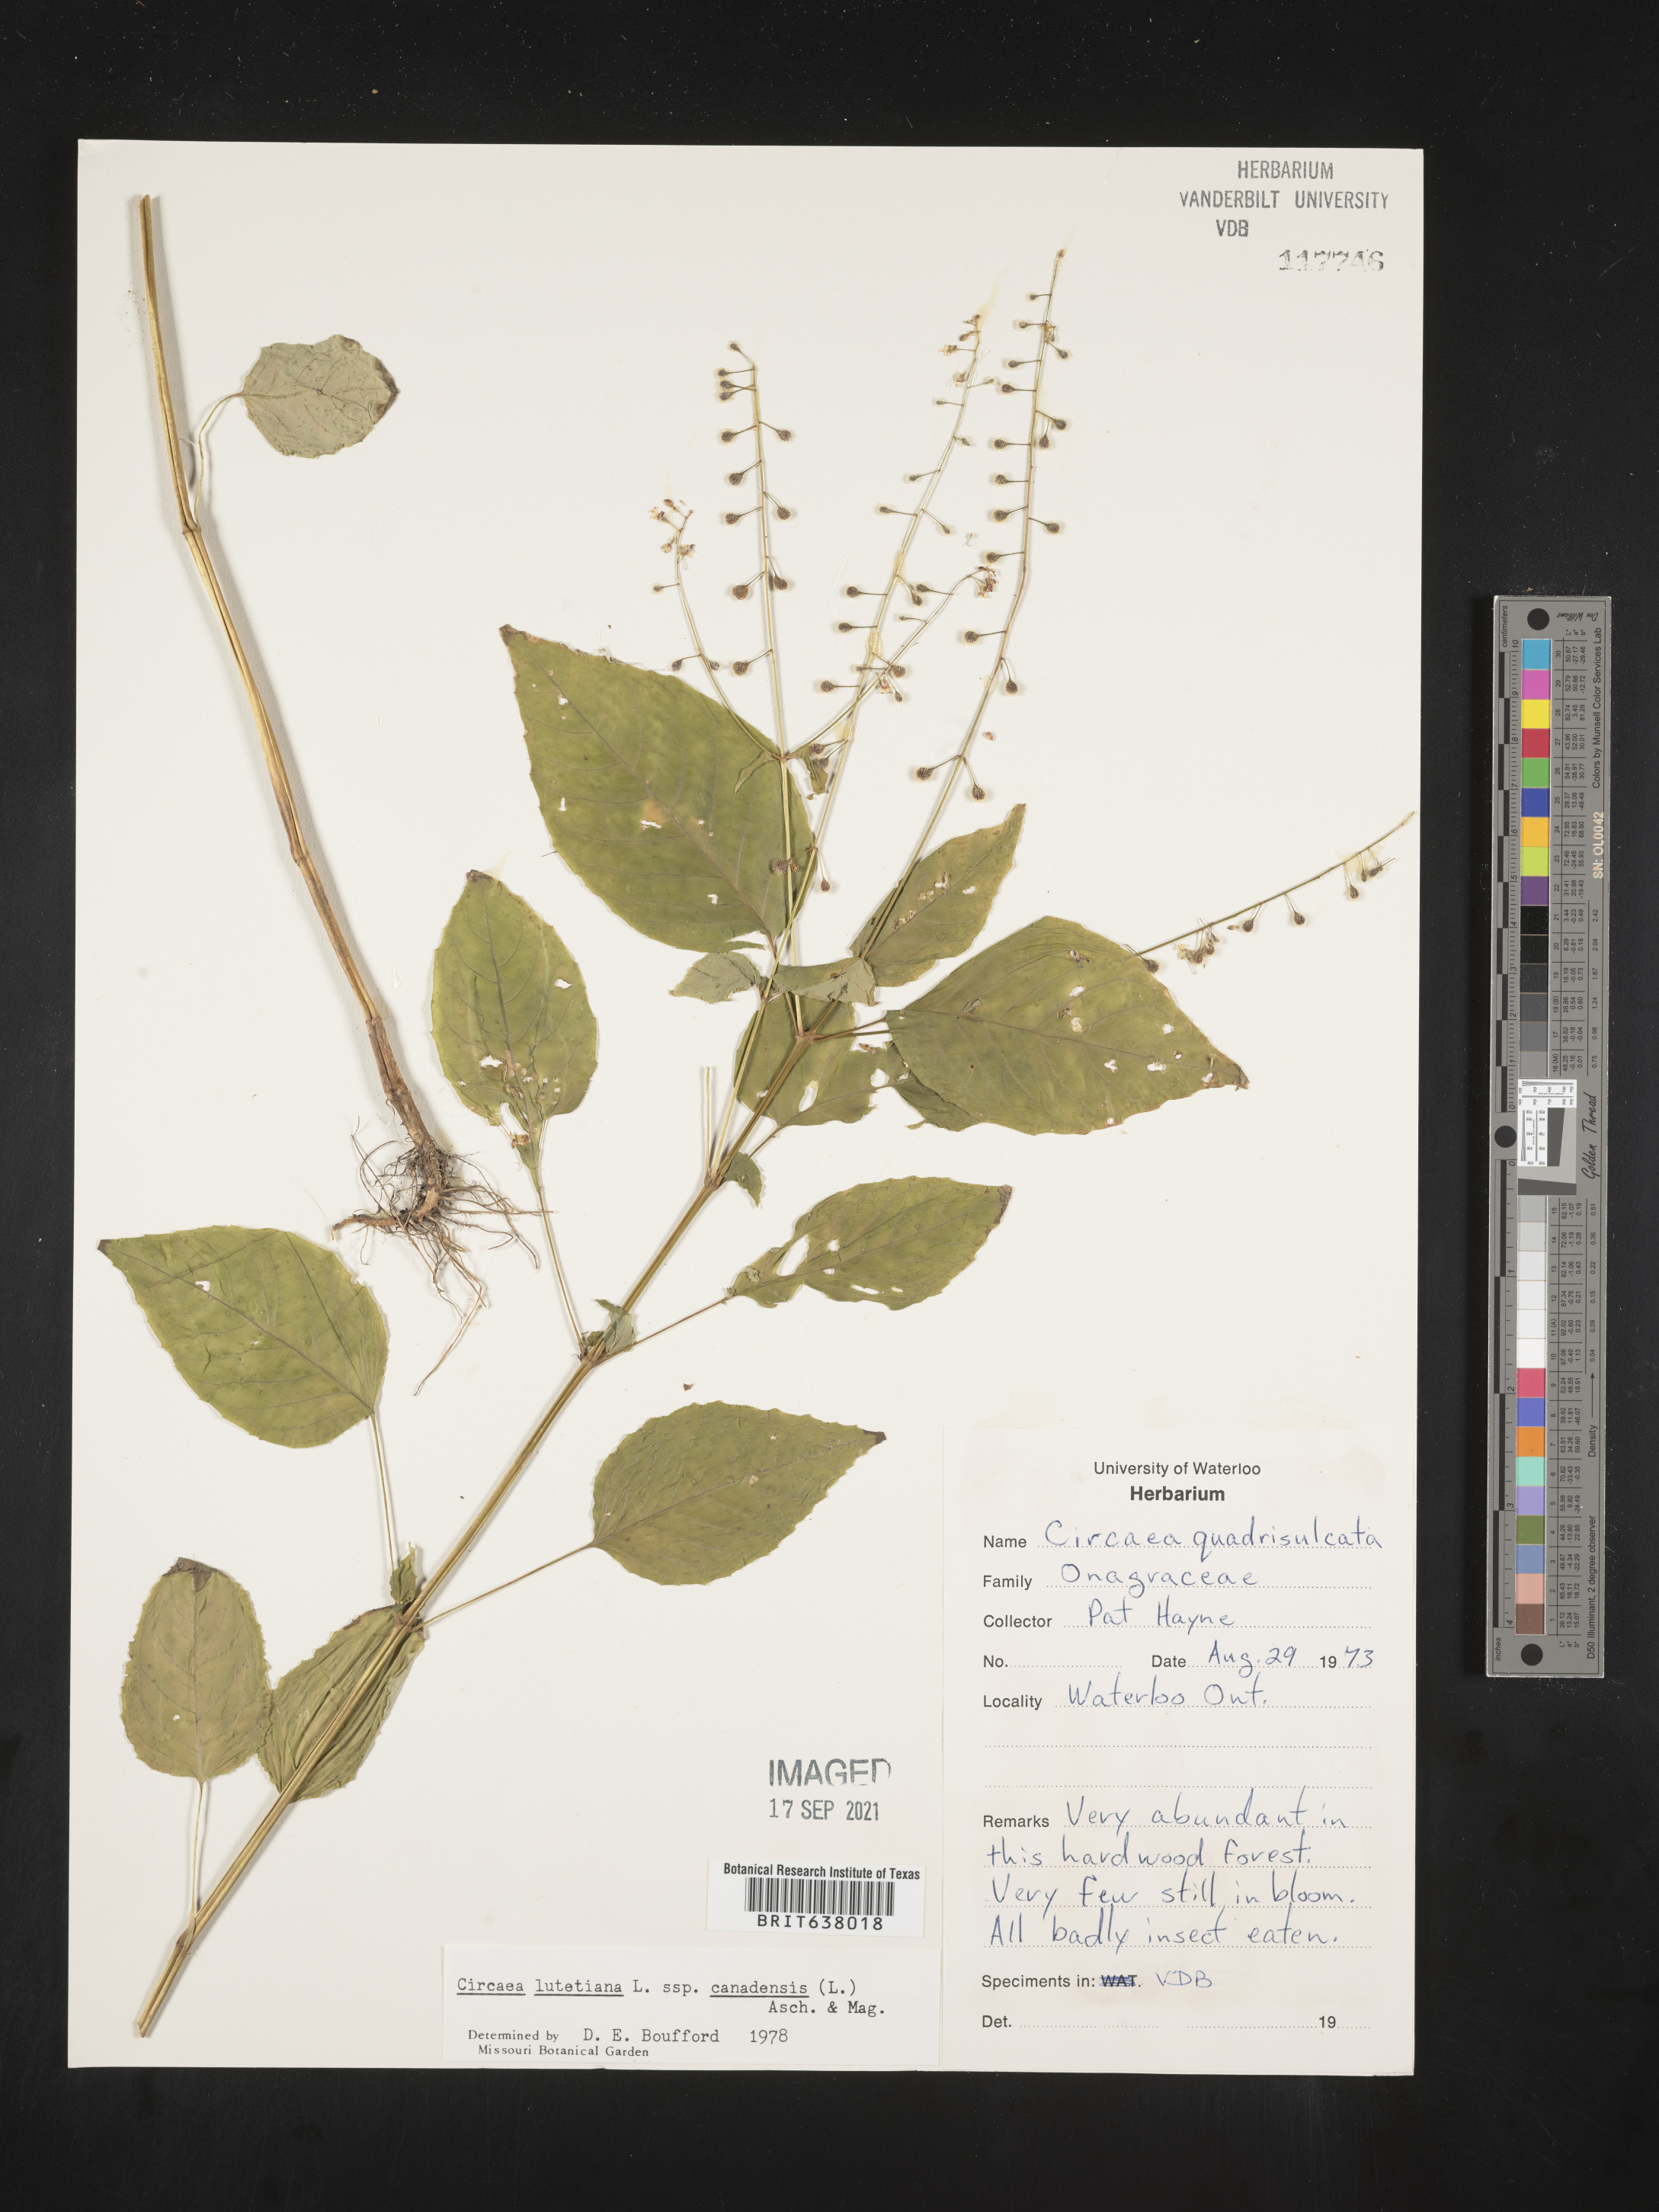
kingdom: Plantae
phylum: Tracheophyta
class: Magnoliopsida
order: Myrtales
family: Onagraceae
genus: Circaea
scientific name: Circaea
